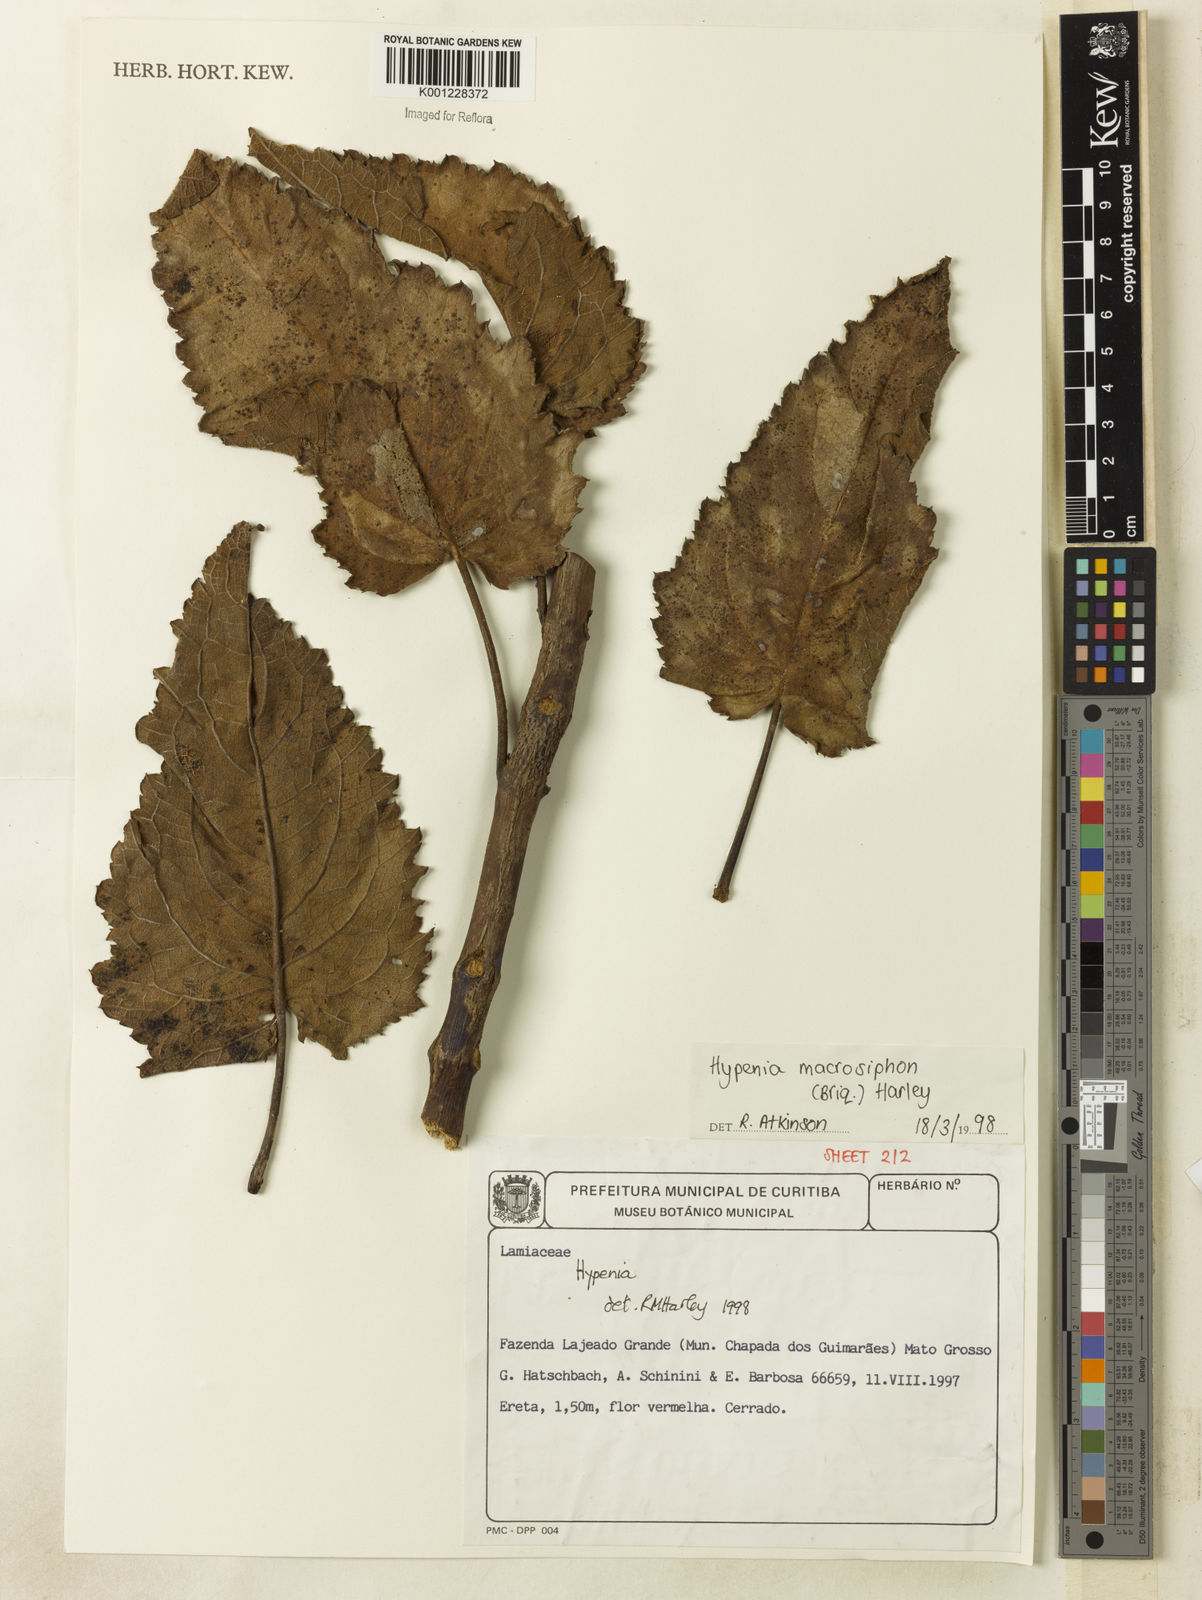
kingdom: Plantae
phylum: Tracheophyta
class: Magnoliopsida
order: Lamiales
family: Lamiaceae
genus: Hypenia
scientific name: Hypenia macrosiphon
